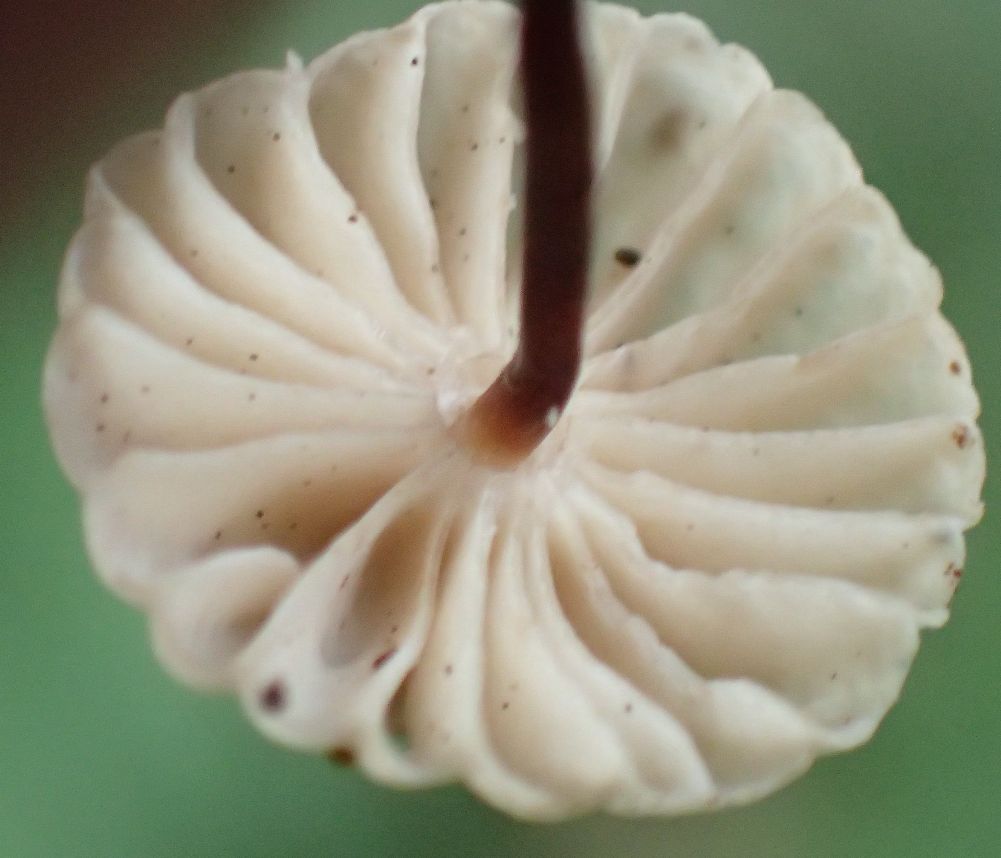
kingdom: Fungi
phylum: Basidiomycota
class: Agaricomycetes
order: Agaricales
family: Marasmiaceae
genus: Marasmius
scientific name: Marasmius rotula
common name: hjul-bruskhat
